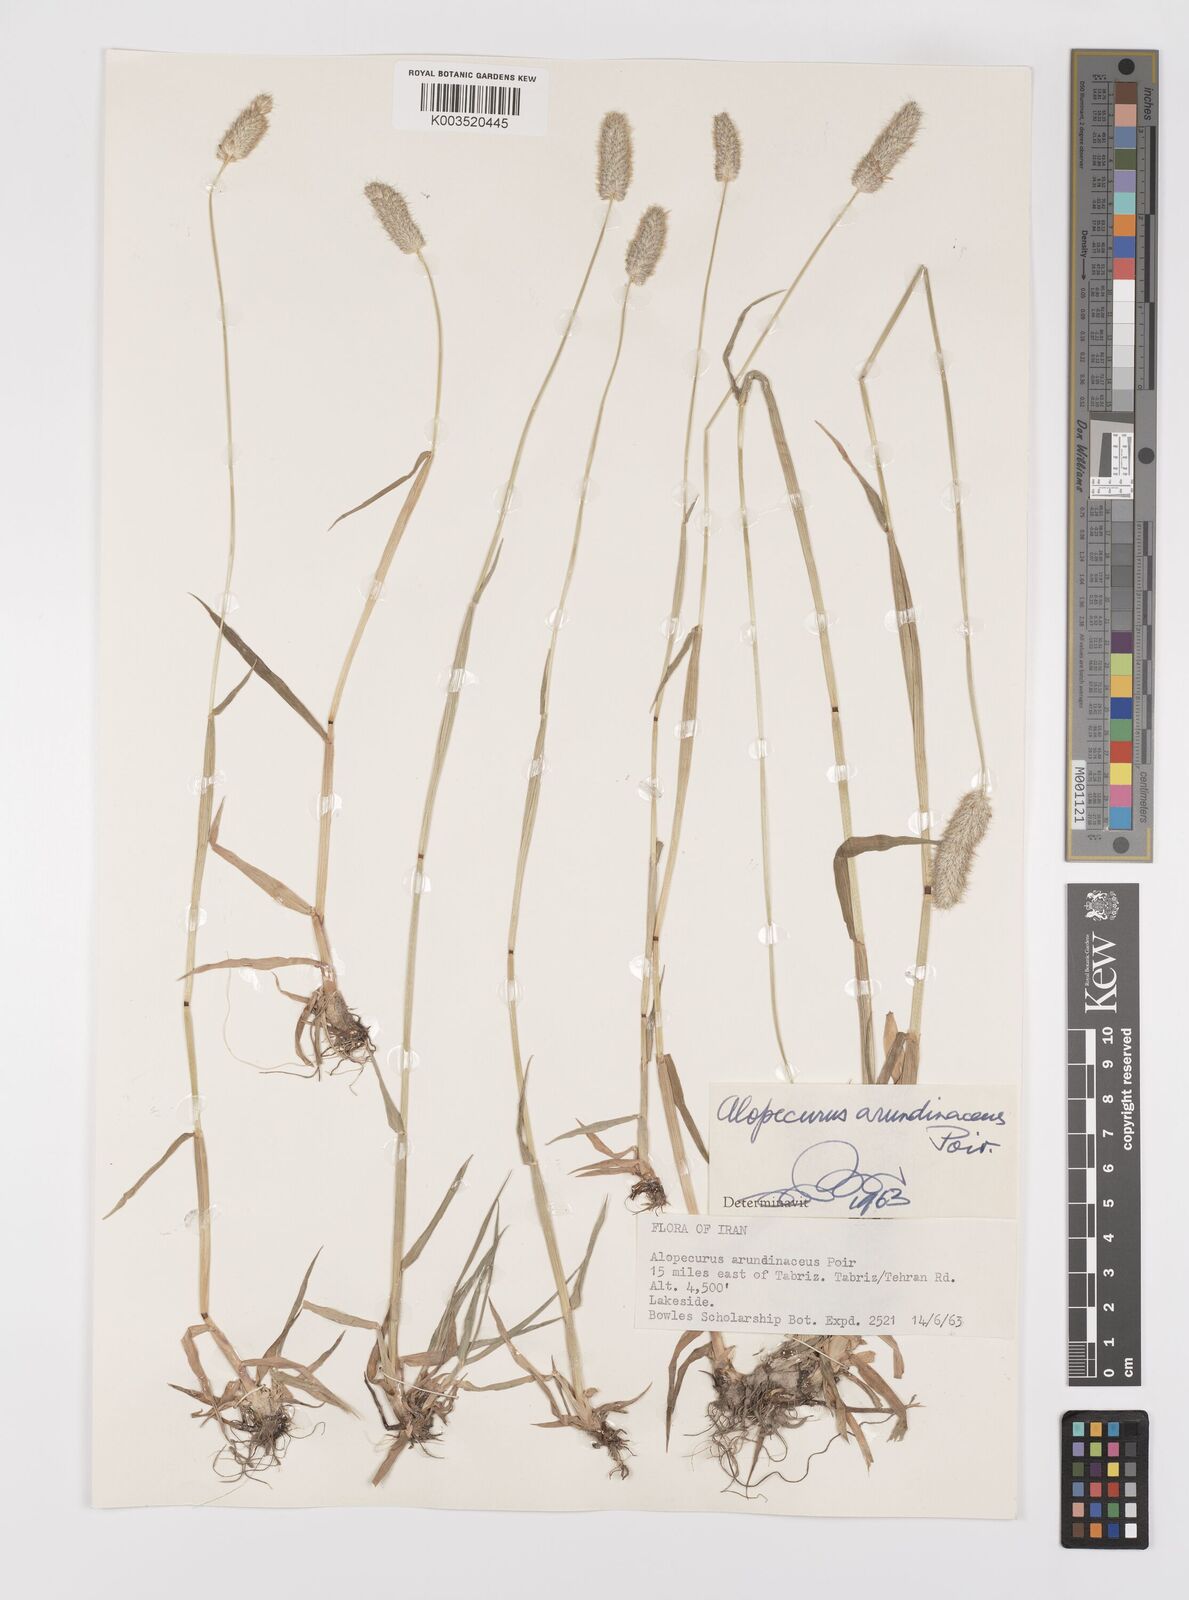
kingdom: Plantae
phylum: Tracheophyta
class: Liliopsida
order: Poales
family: Poaceae
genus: Alopecurus
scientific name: Alopecurus arundinaceus
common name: Creeping meadow foxtail
